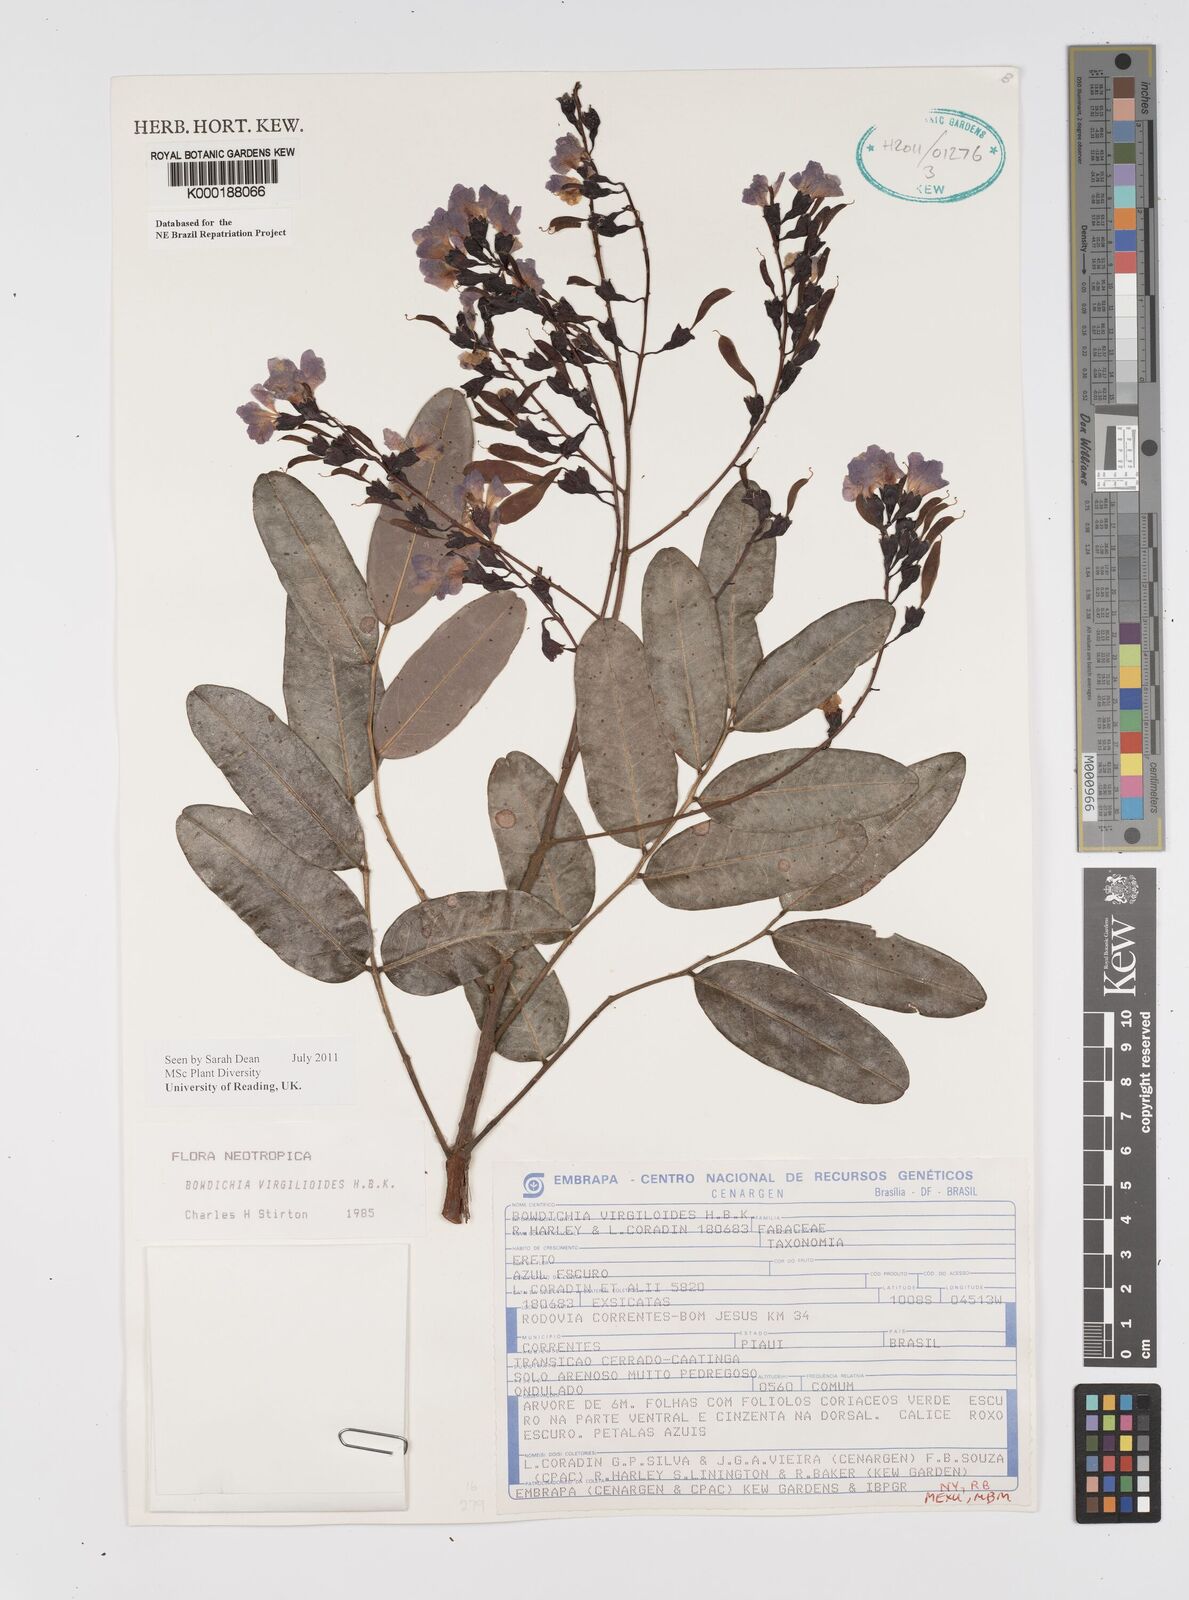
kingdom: Plantae
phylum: Tracheophyta
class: Magnoliopsida
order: Fabales
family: Fabaceae
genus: Bowdichia
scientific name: Bowdichia virgilioides
